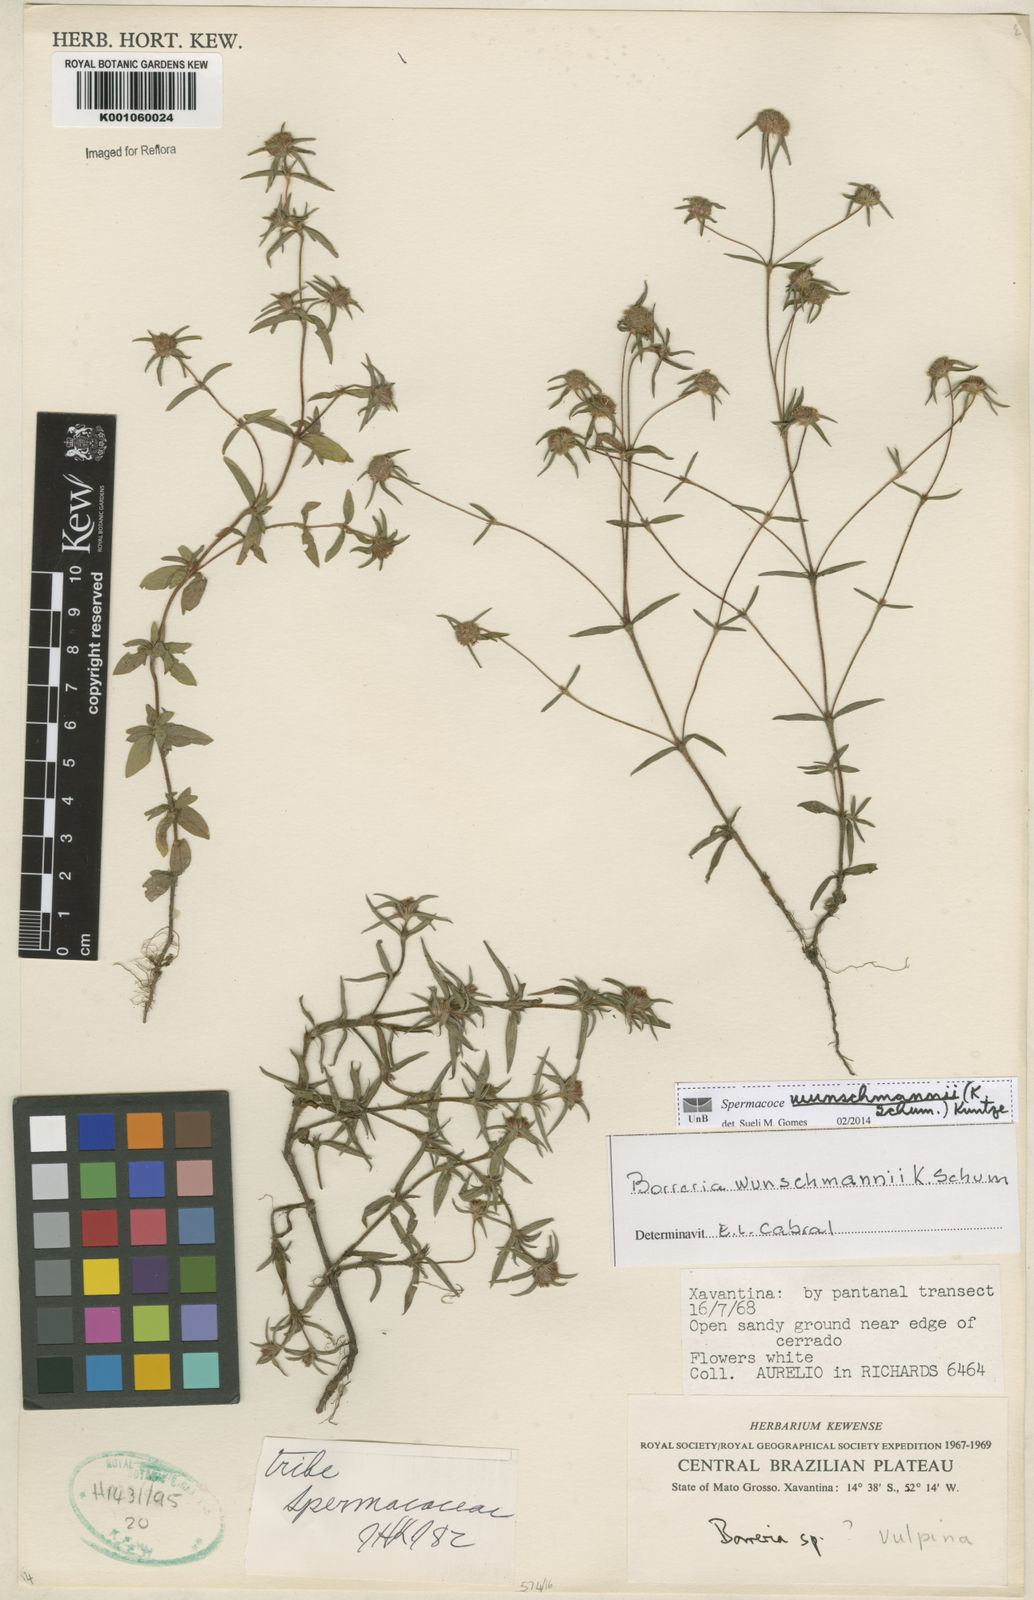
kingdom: Plantae
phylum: Tracheophyta
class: Magnoliopsida
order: Gentianales
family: Rubiaceae
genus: Spermacoce
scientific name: Spermacoce wunschmannii
